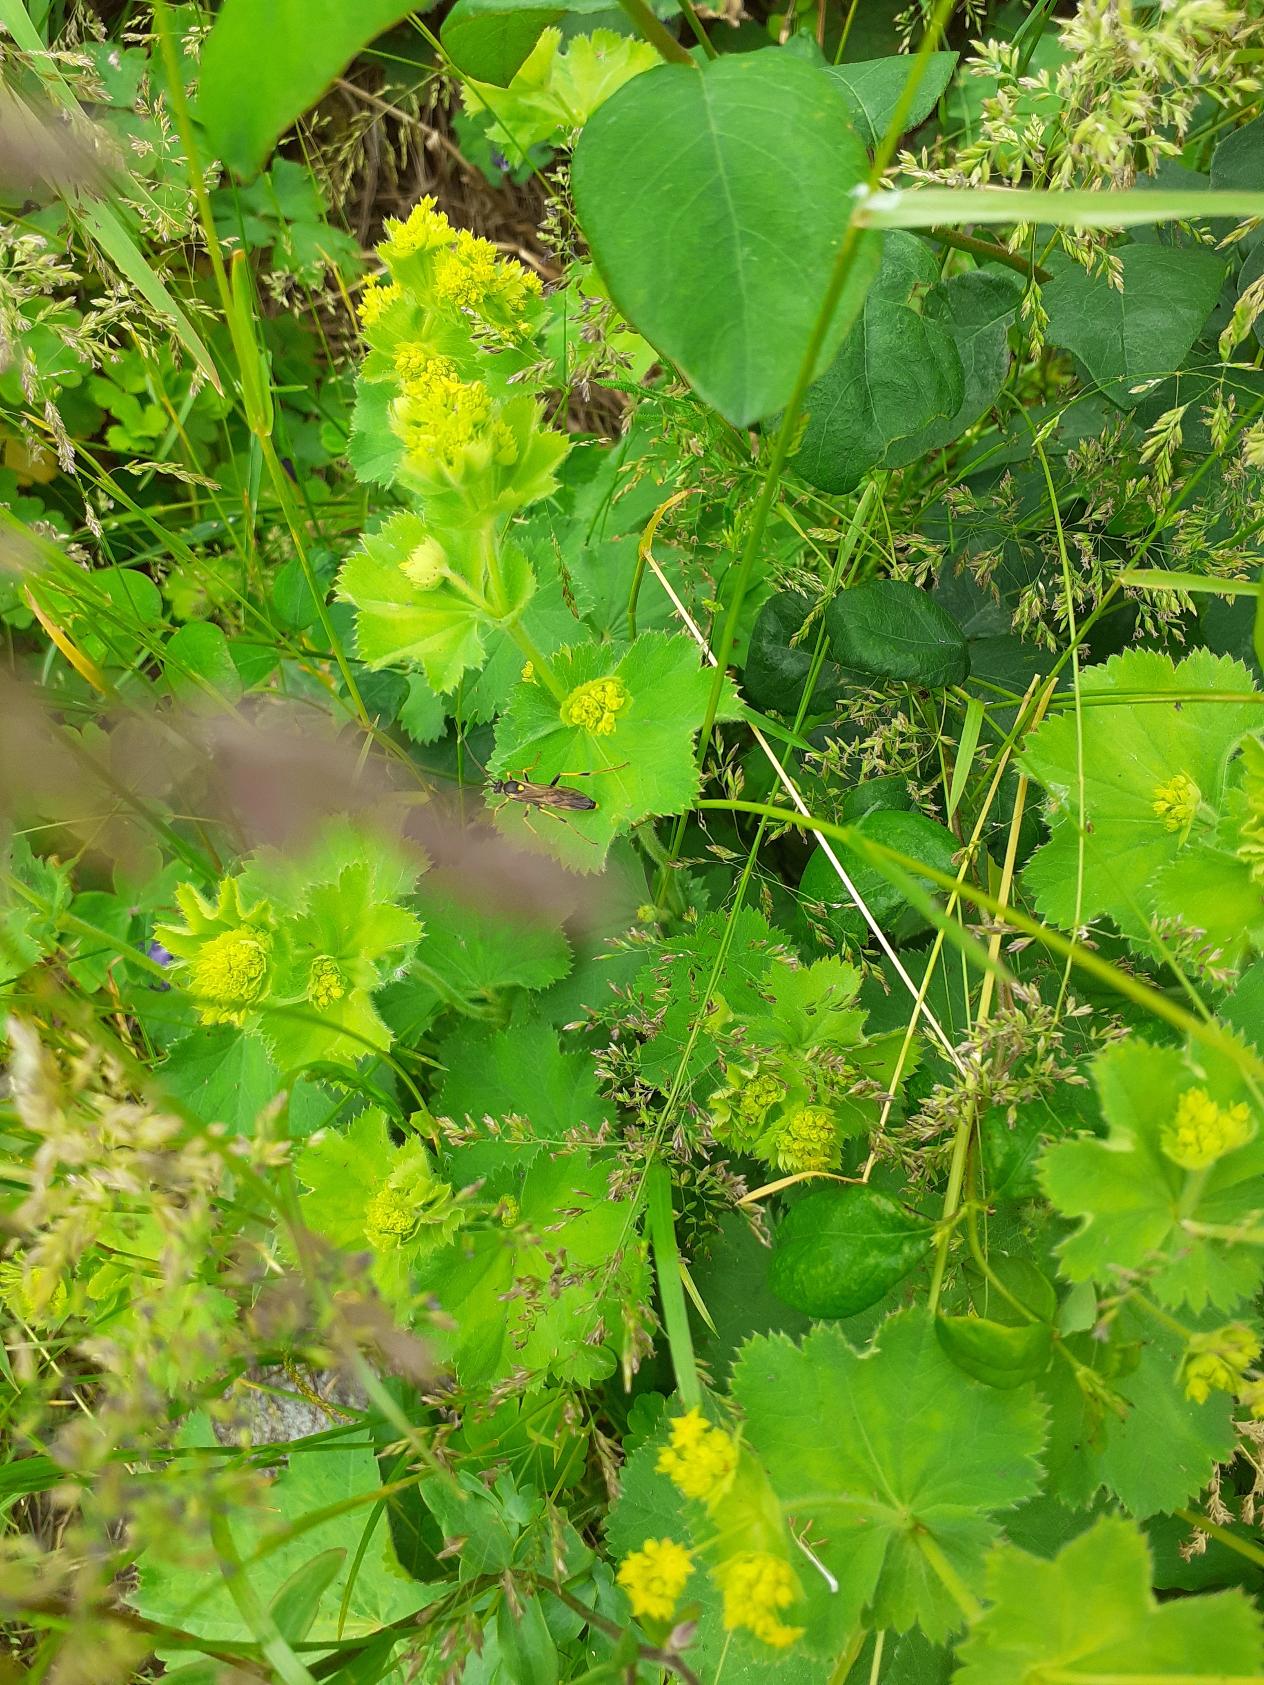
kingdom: Animalia
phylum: Arthropoda
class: Insecta
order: Hymenoptera
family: Ichneumonidae
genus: Amblyteles
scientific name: Amblyteles armatorius
